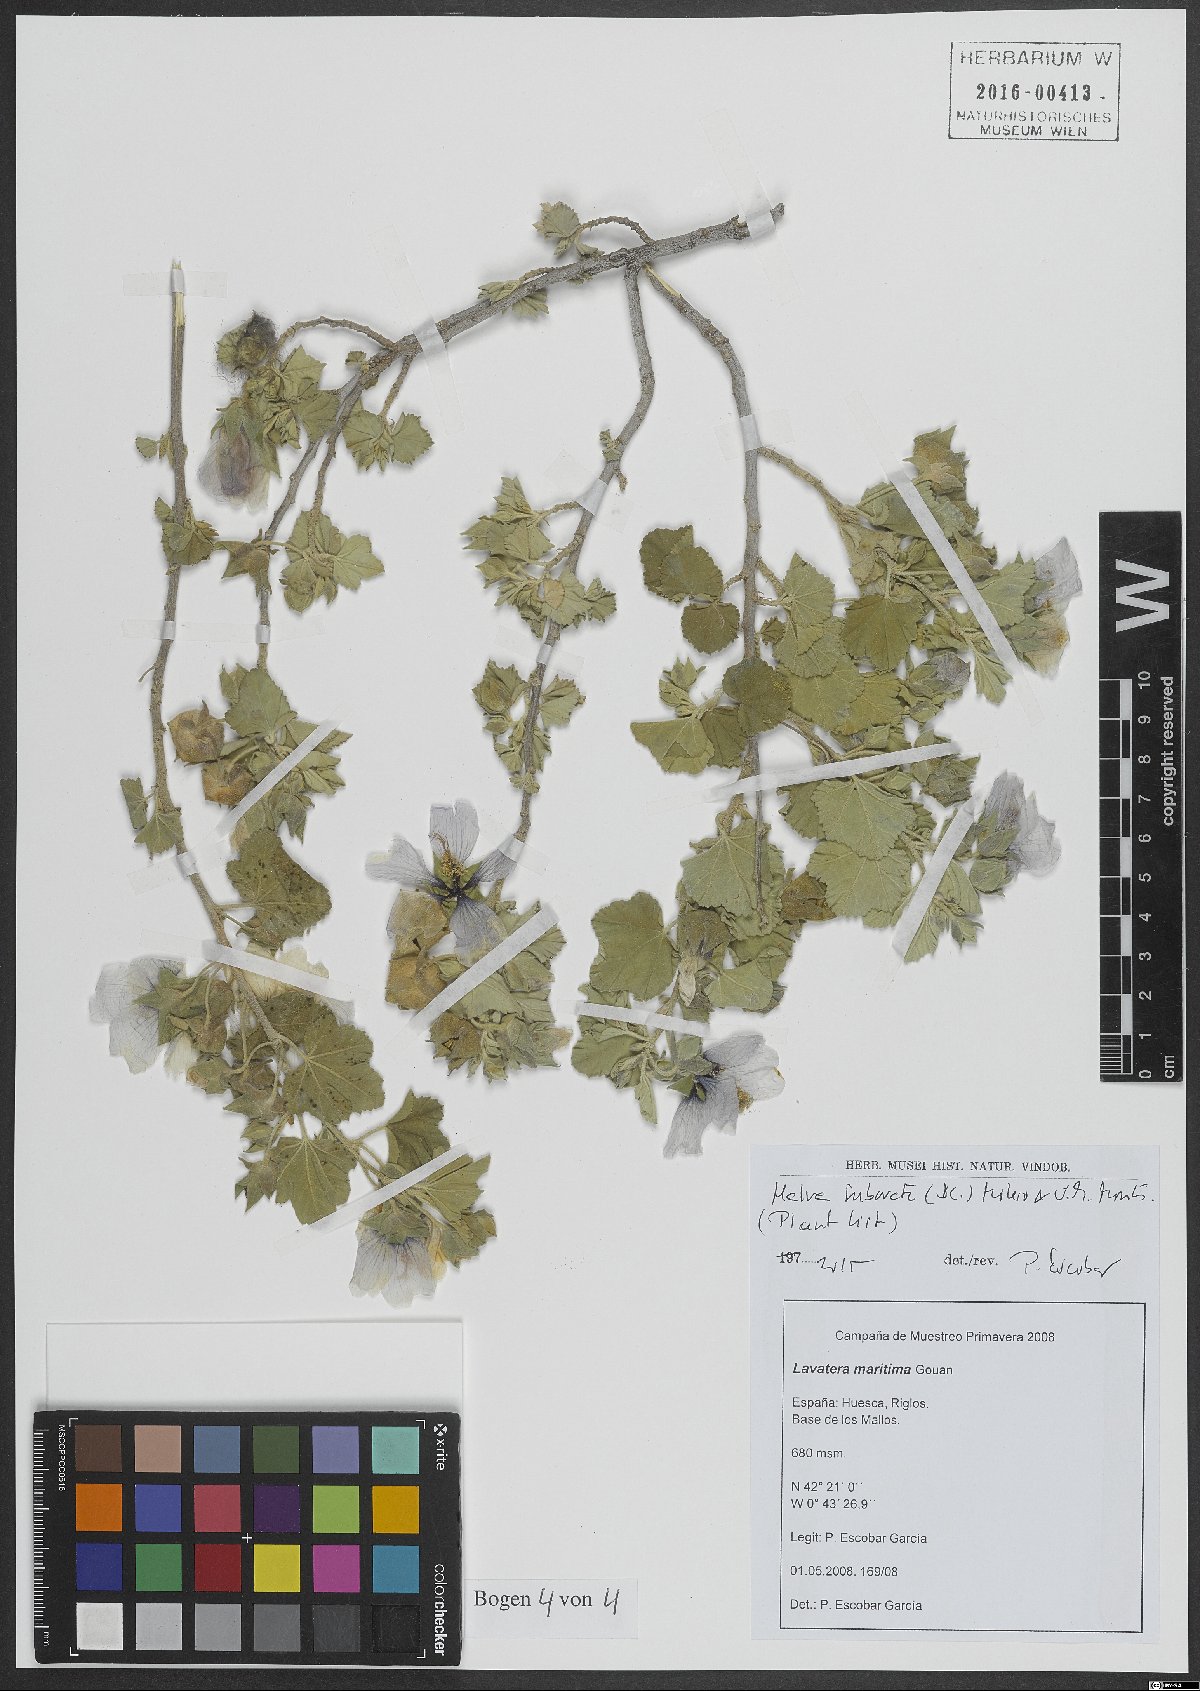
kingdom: Plantae
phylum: Tracheophyta
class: Magnoliopsida
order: Malvales
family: Malvaceae
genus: Malva
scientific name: Malva subovata
